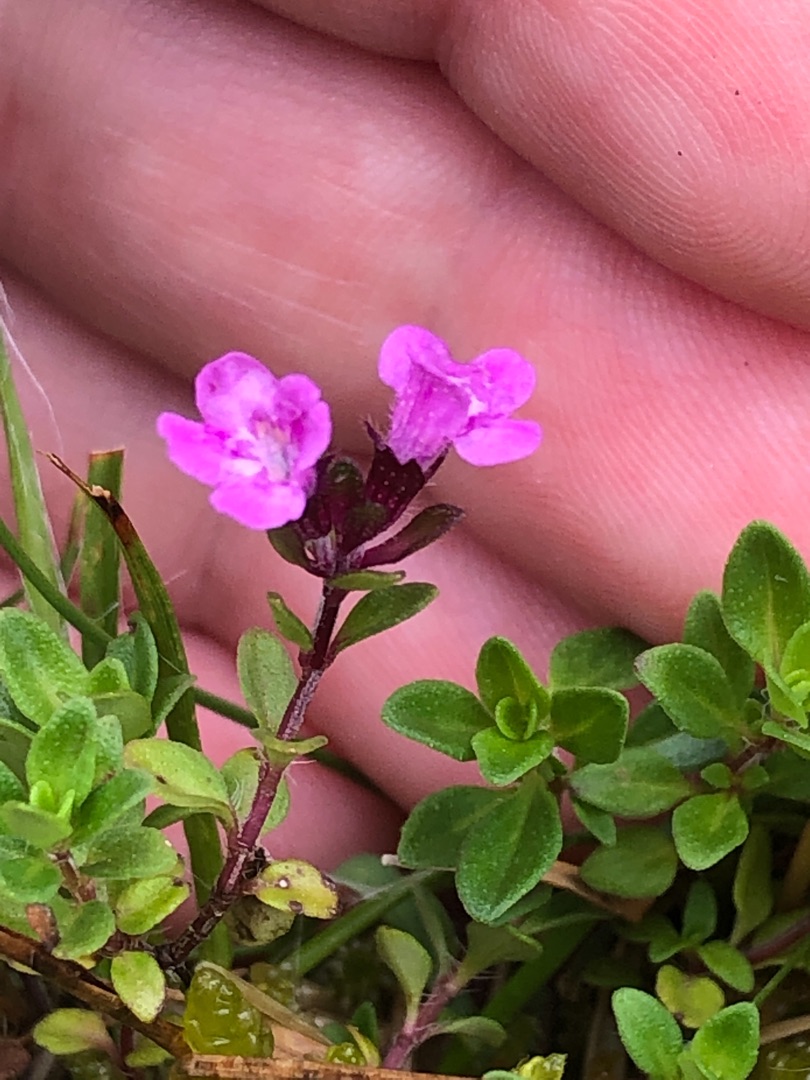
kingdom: Plantae
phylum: Tracheophyta
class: Magnoliopsida
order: Lamiales
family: Lamiaceae
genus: Thymus
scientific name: Thymus serpyllum
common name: Smalbladet timian
